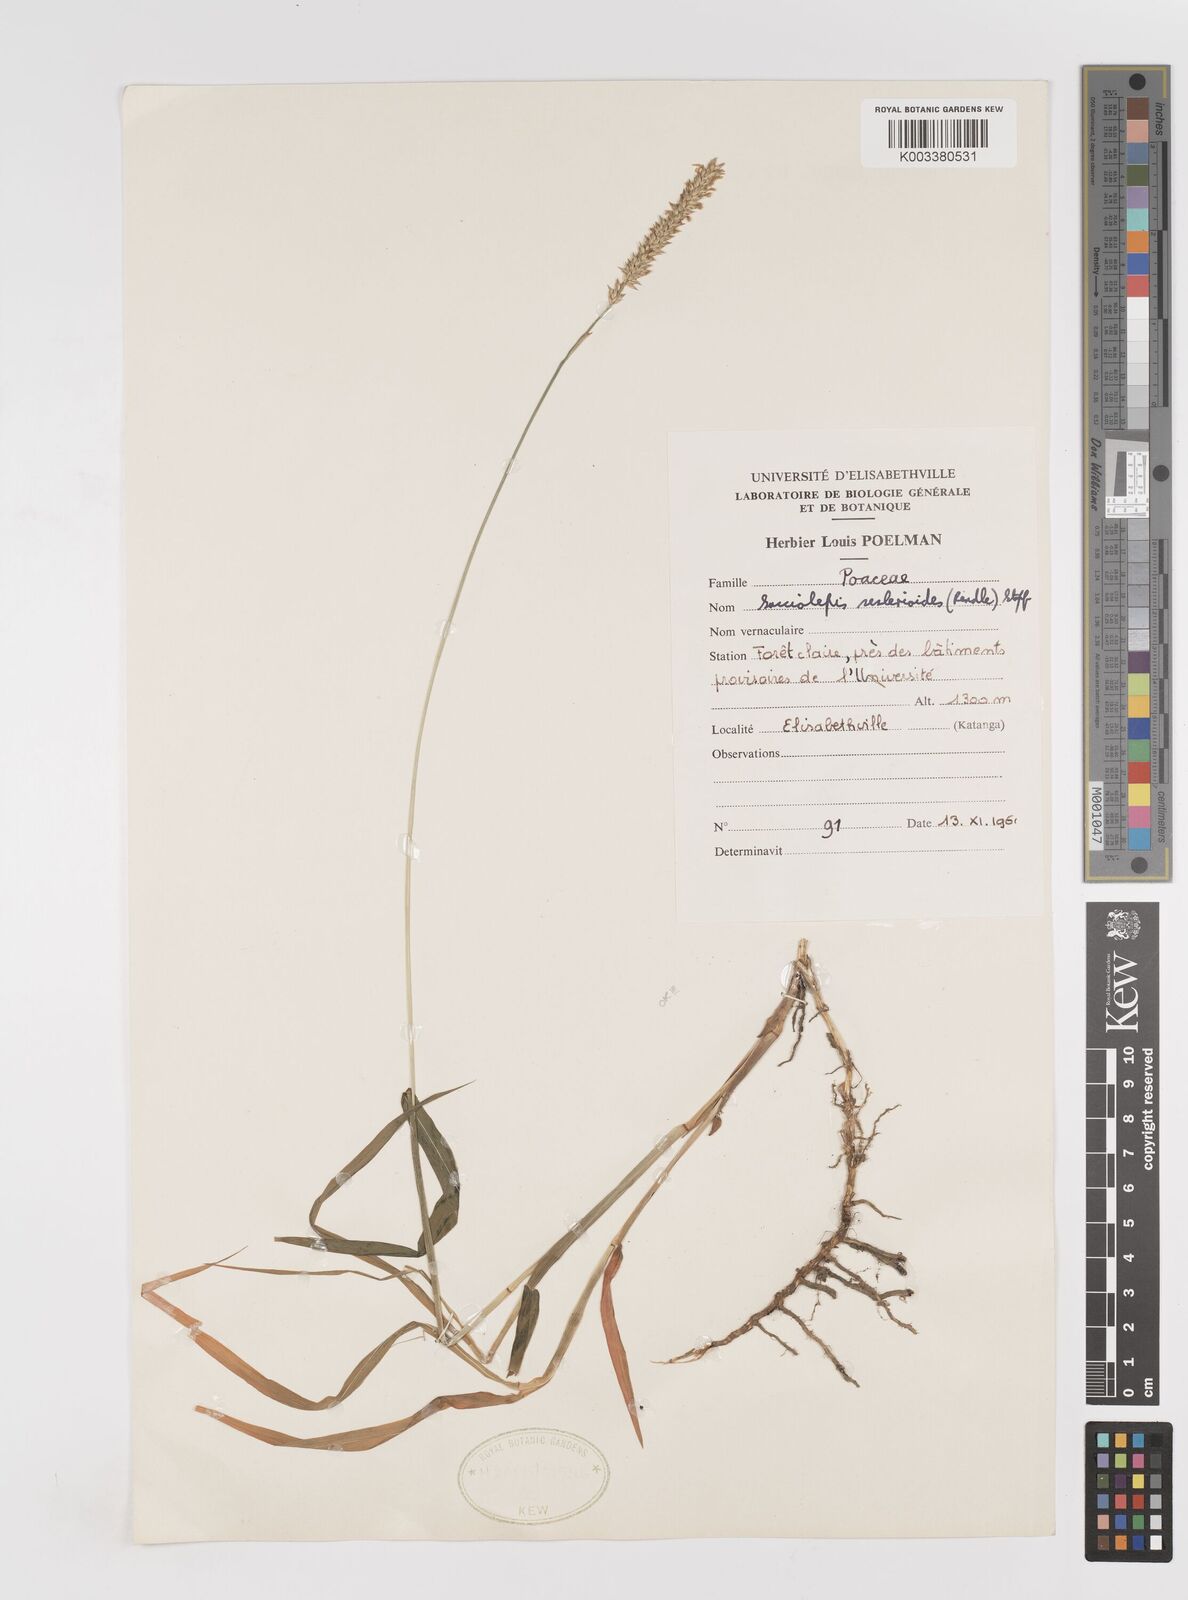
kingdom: Plantae
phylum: Tracheophyta
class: Liliopsida
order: Poales
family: Poaceae
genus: Sacciolepis
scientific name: Sacciolepis seslerioides
